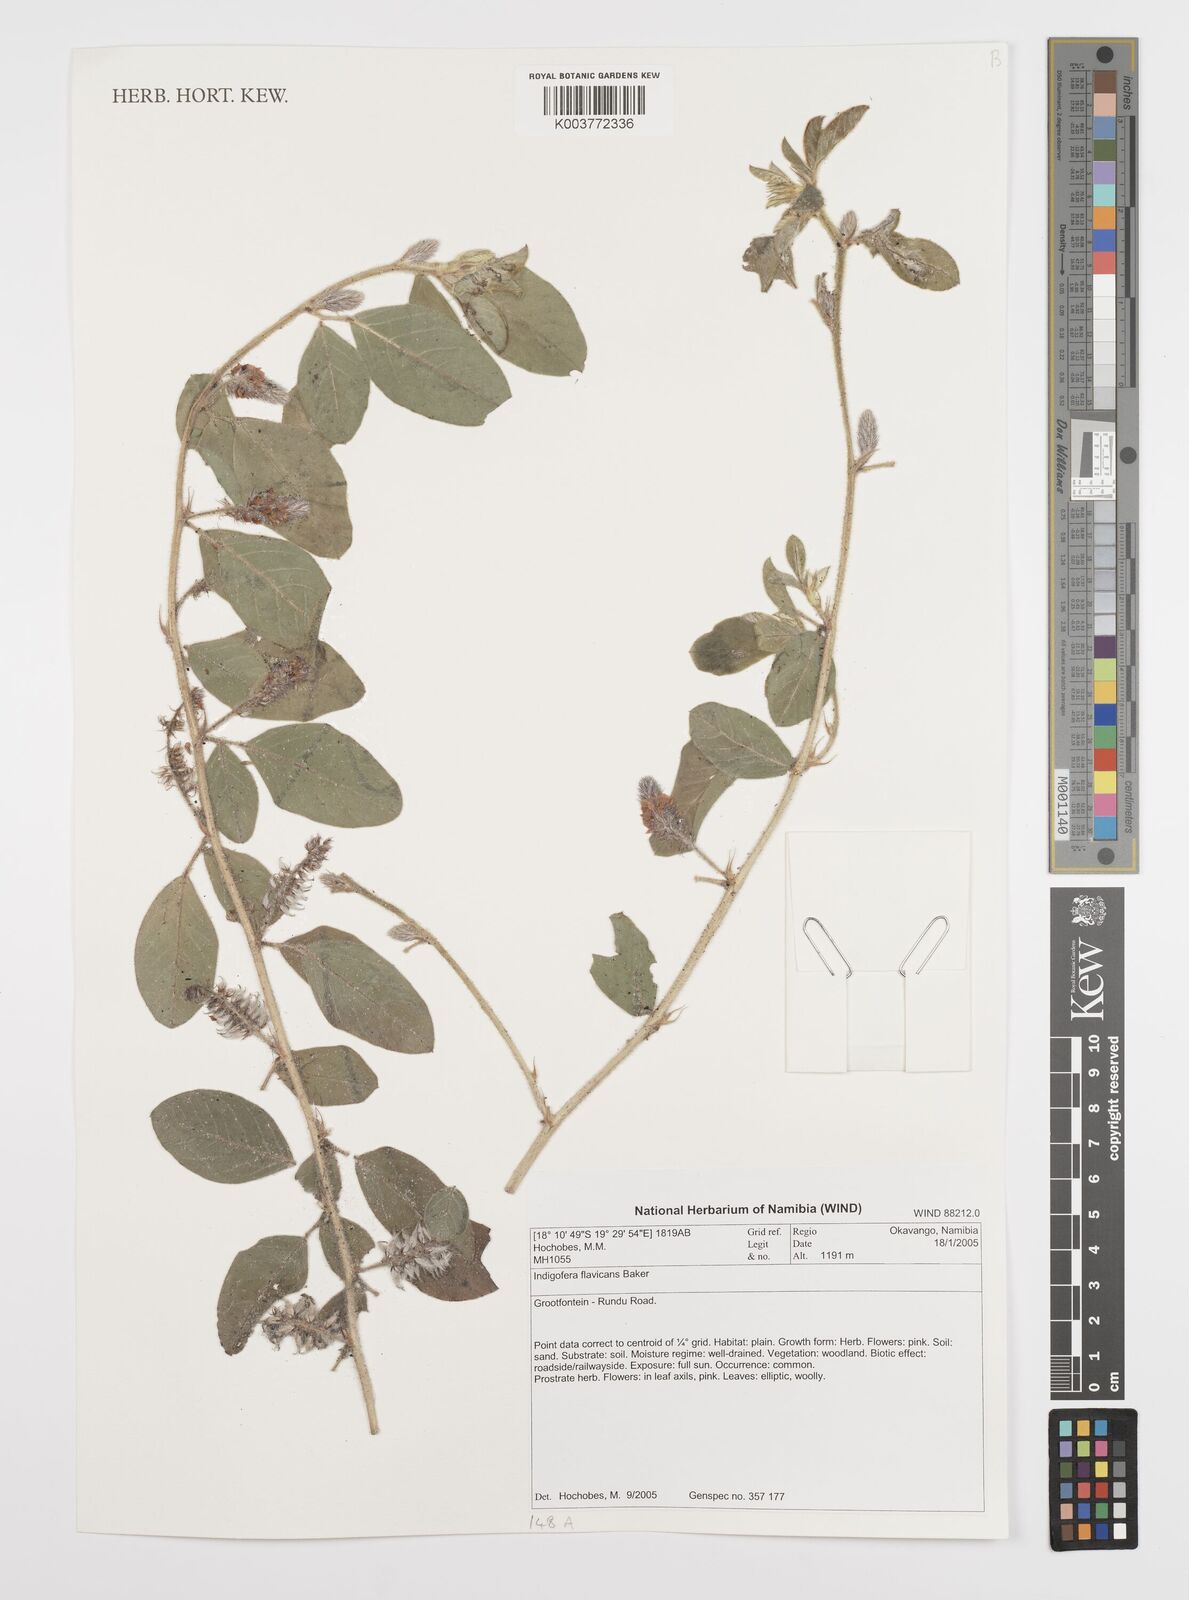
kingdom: Plantae
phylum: Tracheophyta
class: Magnoliopsida
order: Fabales
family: Fabaceae
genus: Indigofera
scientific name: Indigofera flavicans
